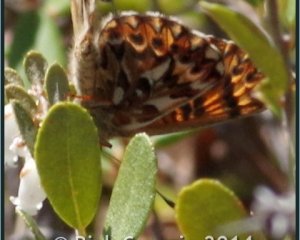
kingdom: Animalia
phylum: Arthropoda
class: Insecta
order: Lepidoptera
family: Nymphalidae
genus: Boloria
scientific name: Boloria freija
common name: Freija Fritillary
